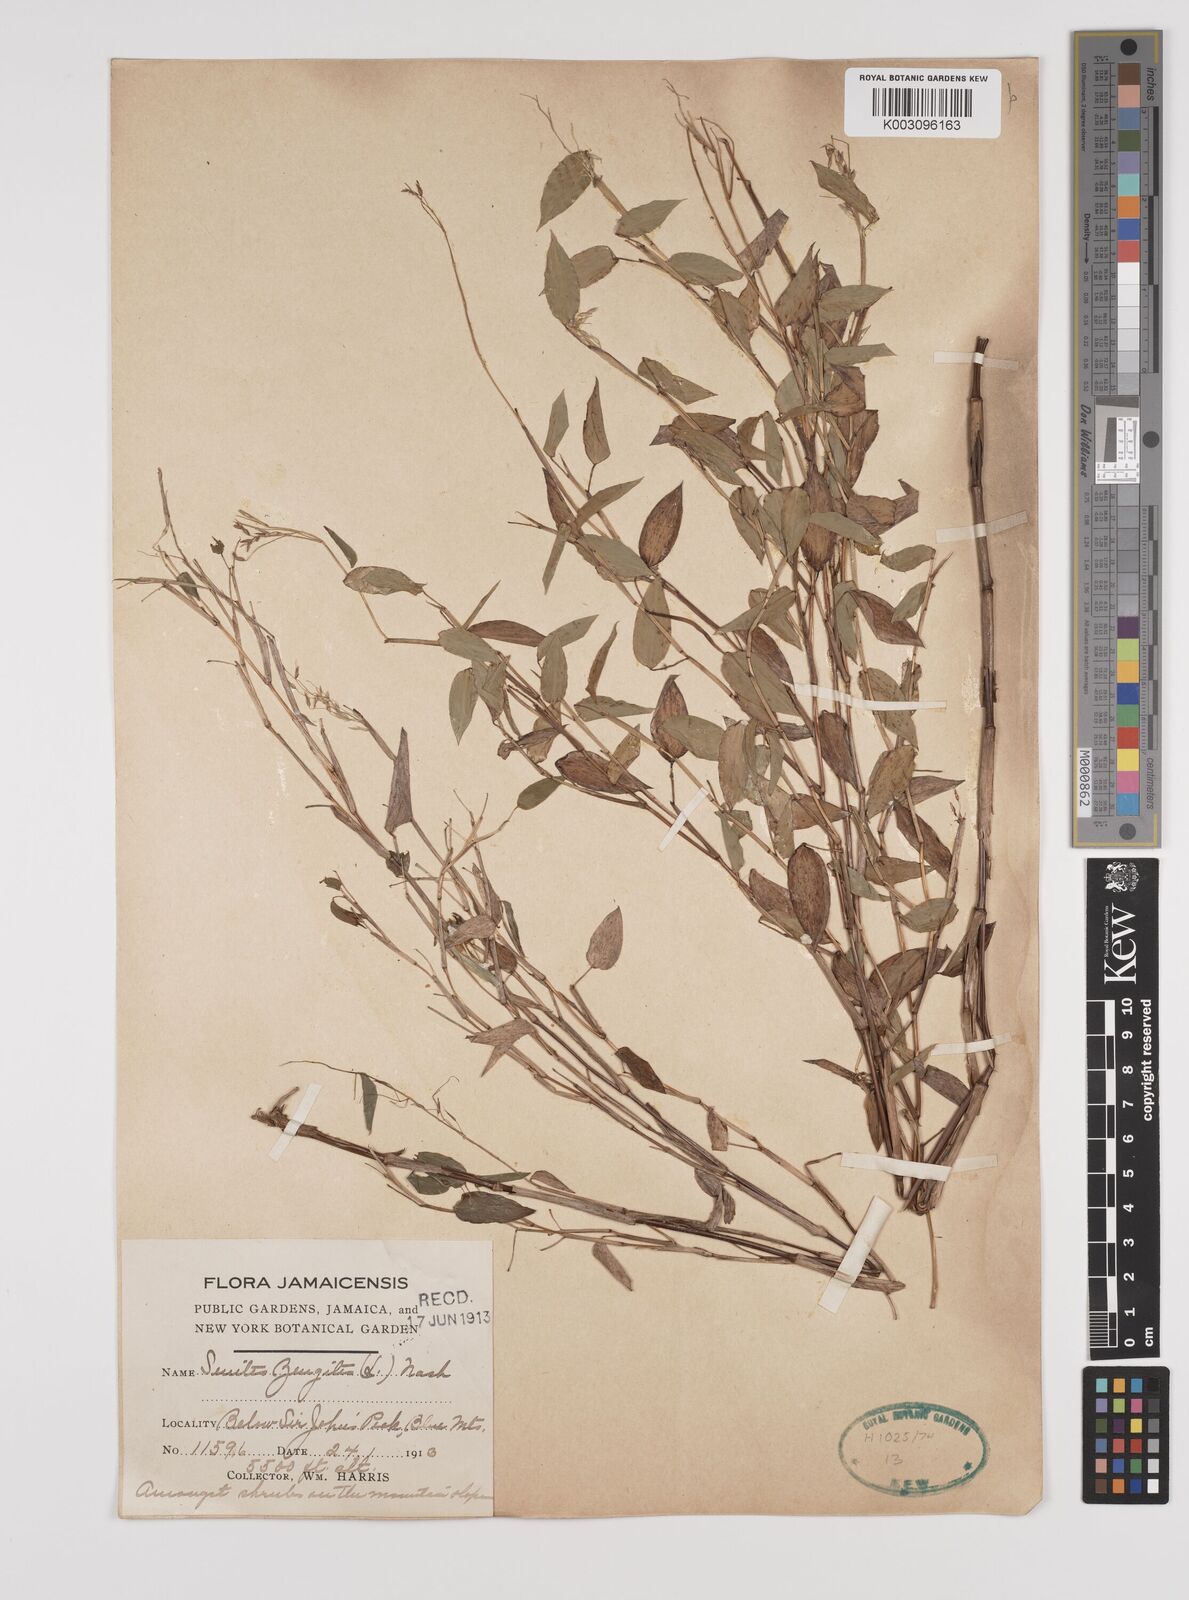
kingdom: Plantae
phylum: Tracheophyta
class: Liliopsida
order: Poales
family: Poaceae
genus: Zeugites
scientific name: Zeugites americanus
